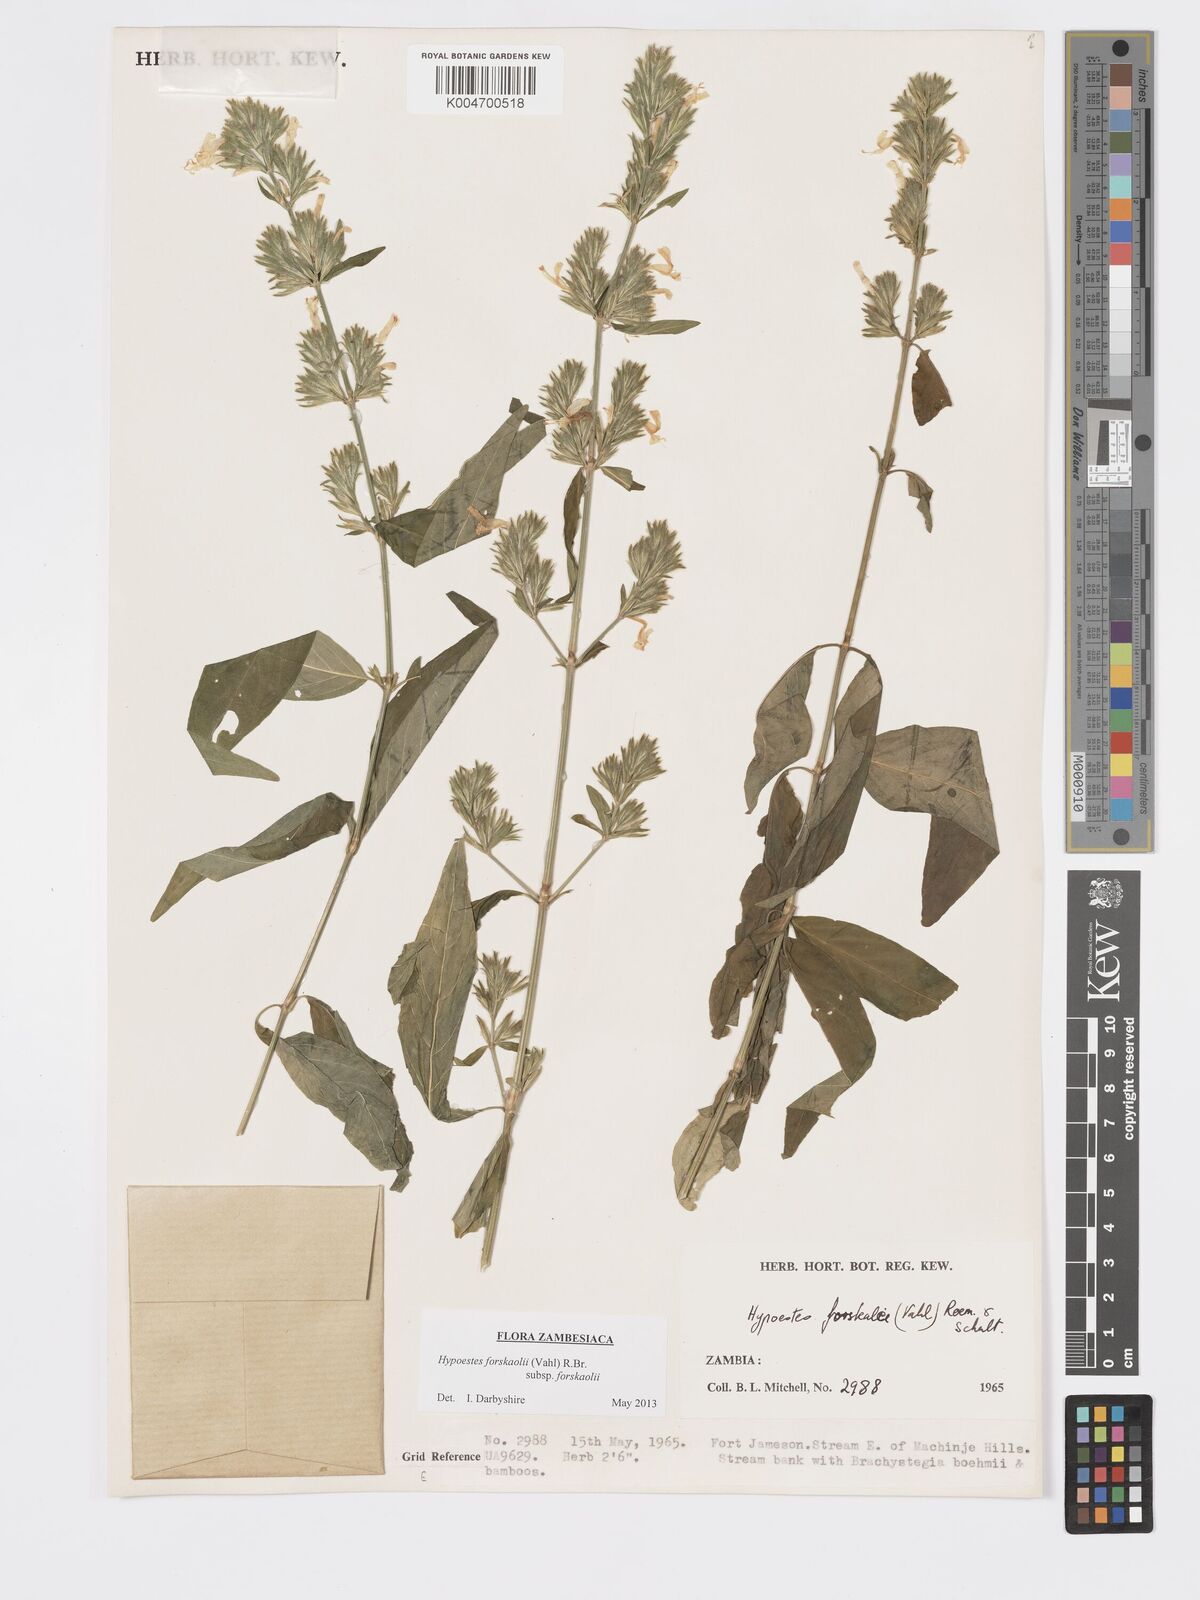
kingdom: Plantae
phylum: Tracheophyta
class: Magnoliopsida
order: Lamiales
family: Acanthaceae
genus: Hypoestes
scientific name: Hypoestes forskaolii
